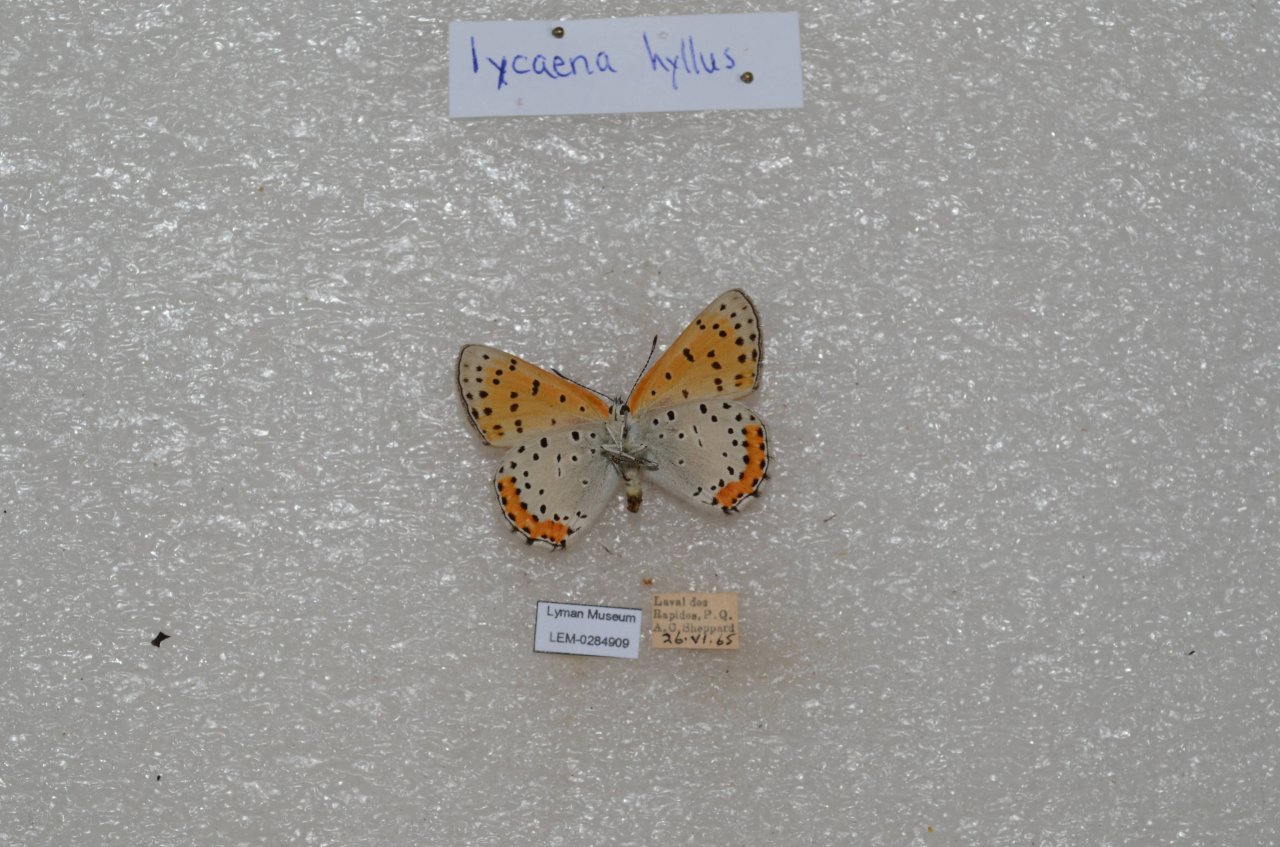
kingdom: Animalia
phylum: Arthropoda
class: Insecta
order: Lepidoptera
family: Sesiidae
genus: Sesia
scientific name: Sesia Lycaena hyllus
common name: Bronze Copper
